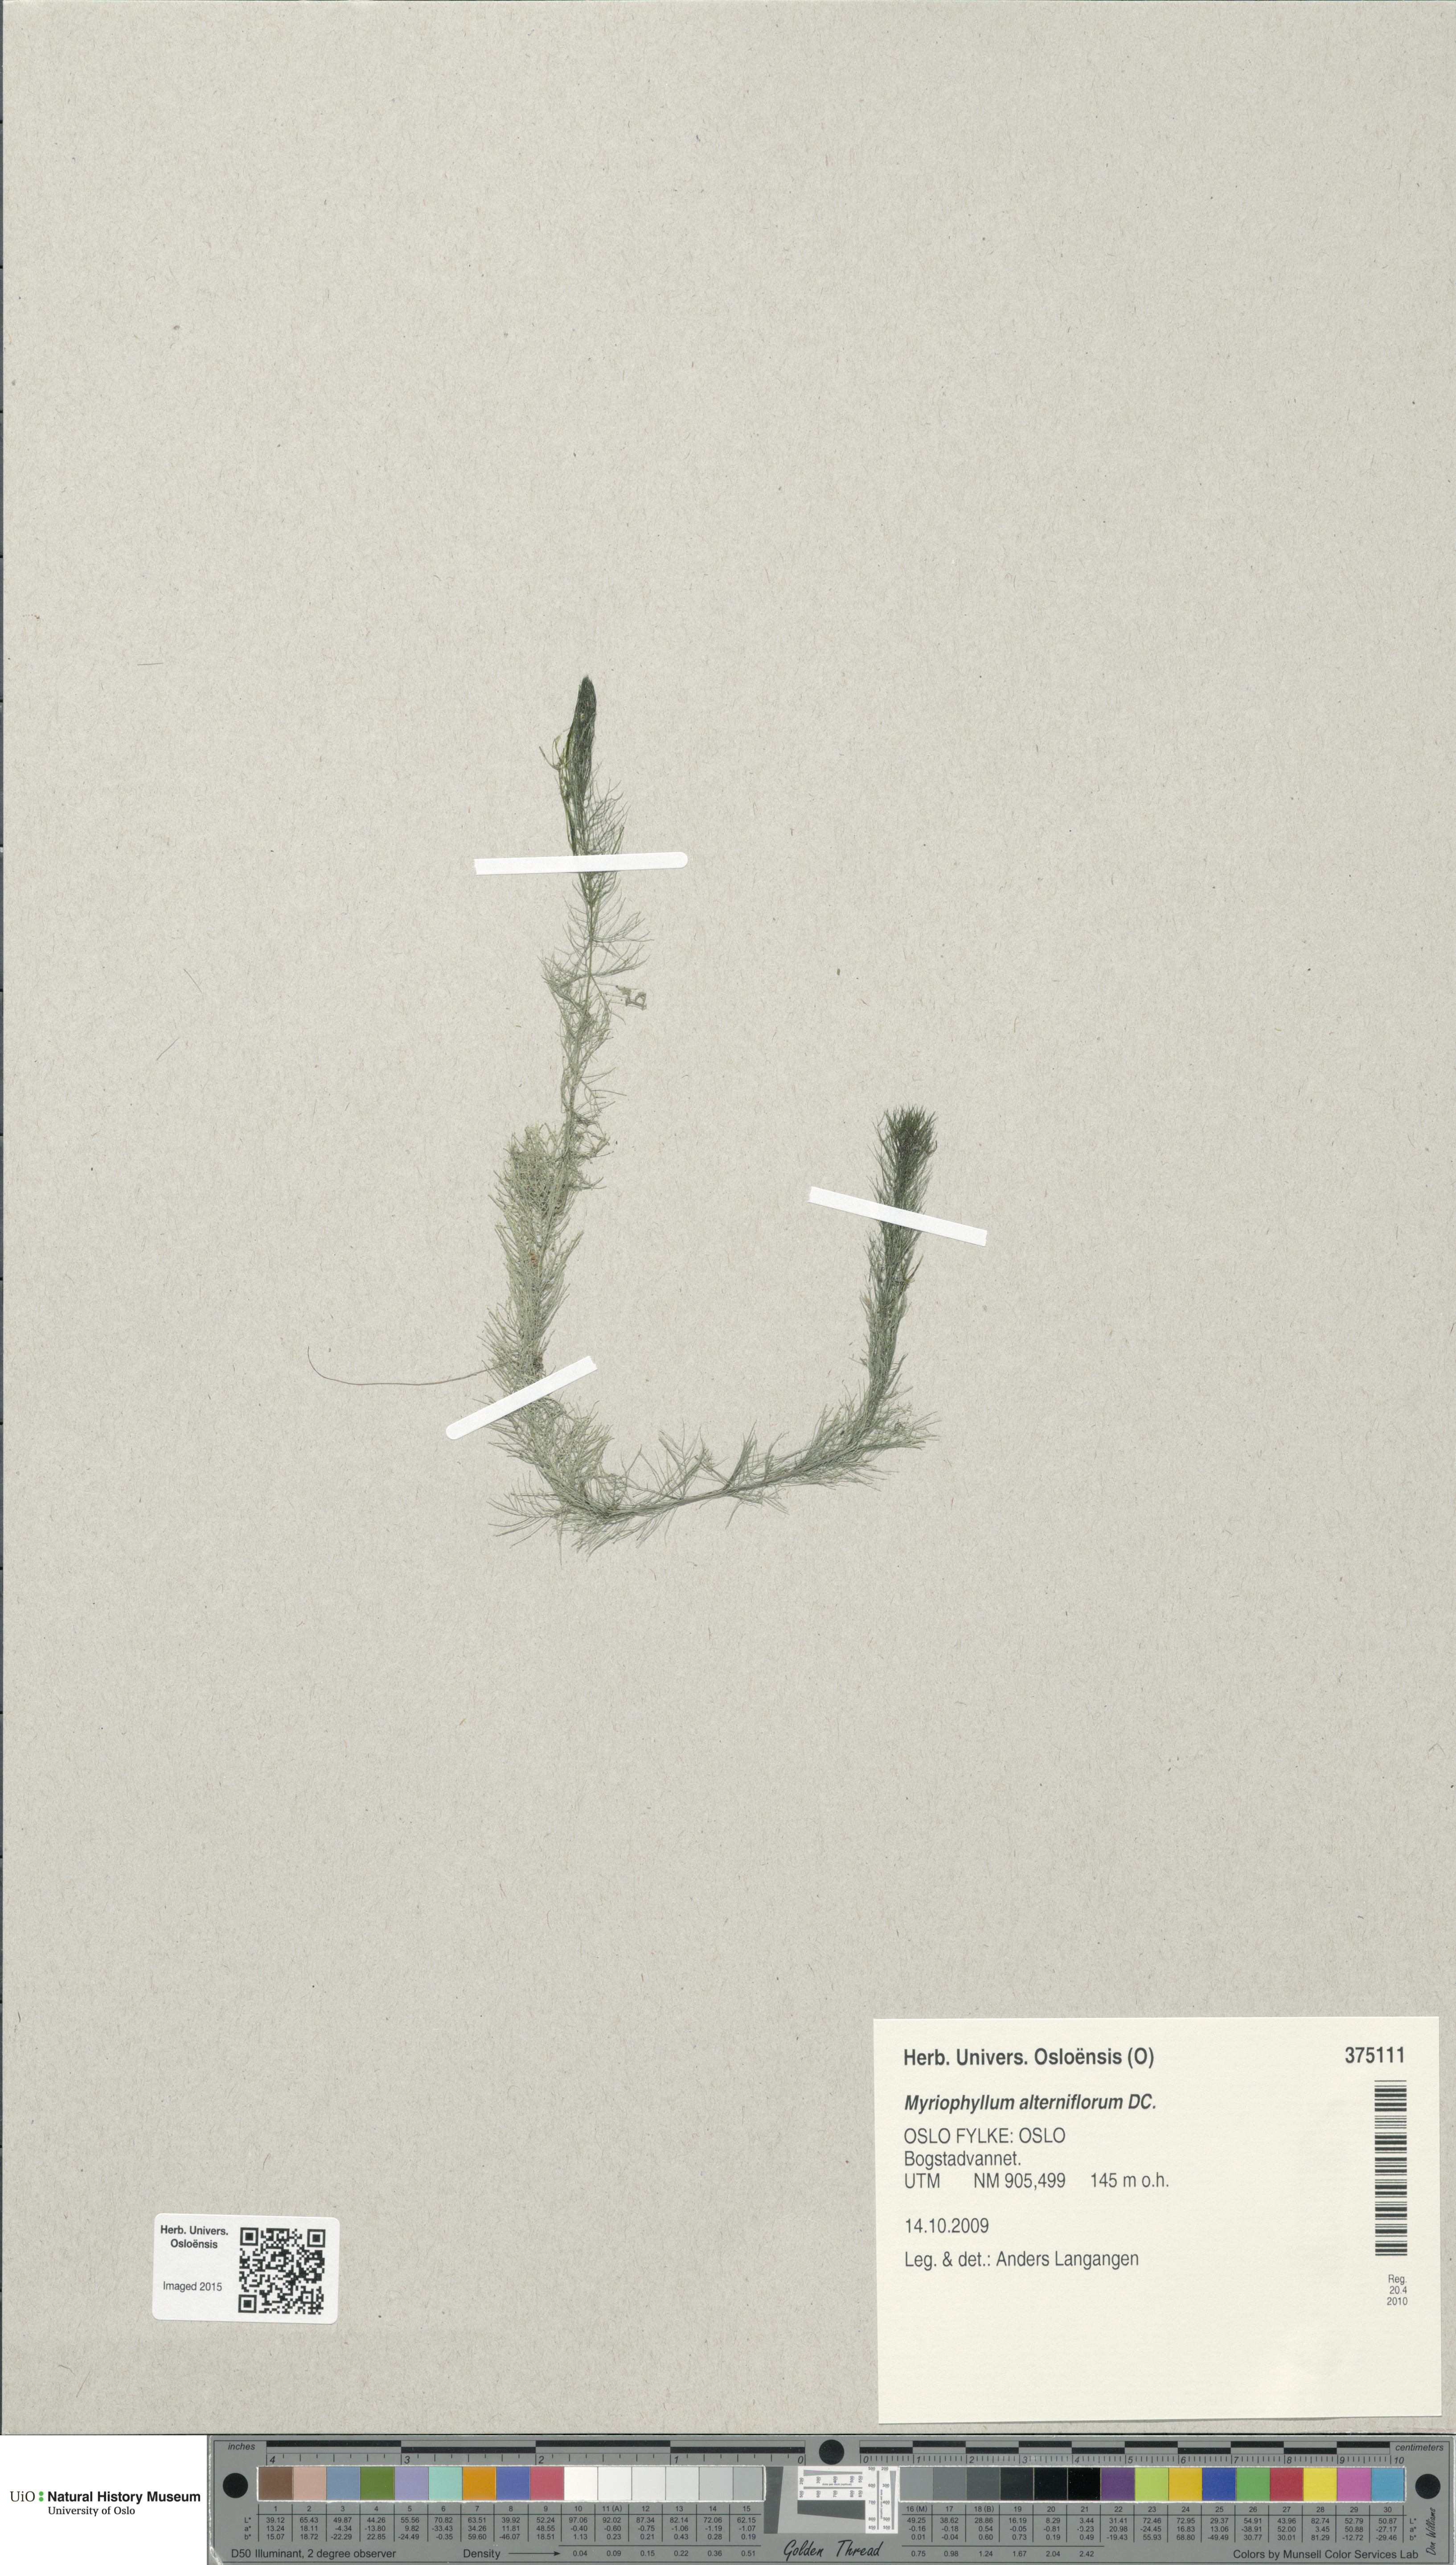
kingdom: Plantae
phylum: Tracheophyta
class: Magnoliopsida
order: Saxifragales
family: Haloragaceae
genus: Myriophyllum
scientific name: Myriophyllum alterniflorum
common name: Alternate water-milfoil
